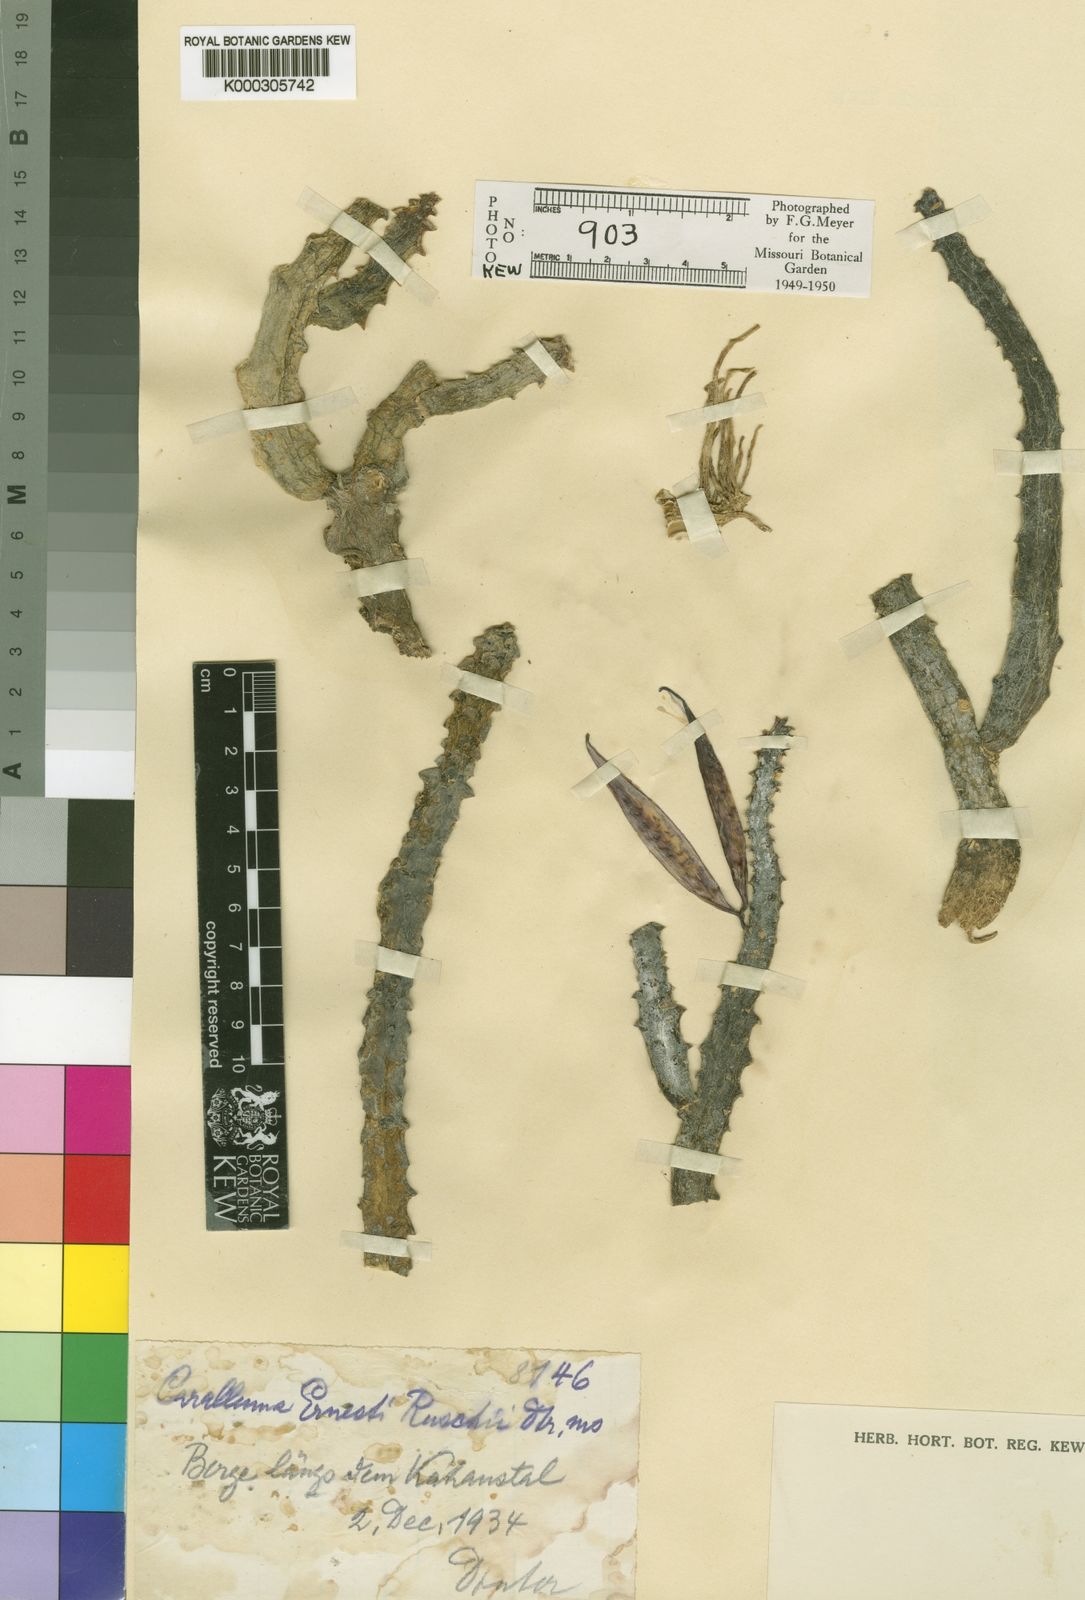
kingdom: Plantae
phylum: Tracheophyta
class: Magnoliopsida
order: Gentianales
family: Apocynaceae
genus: Caralluma
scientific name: Caralluma
